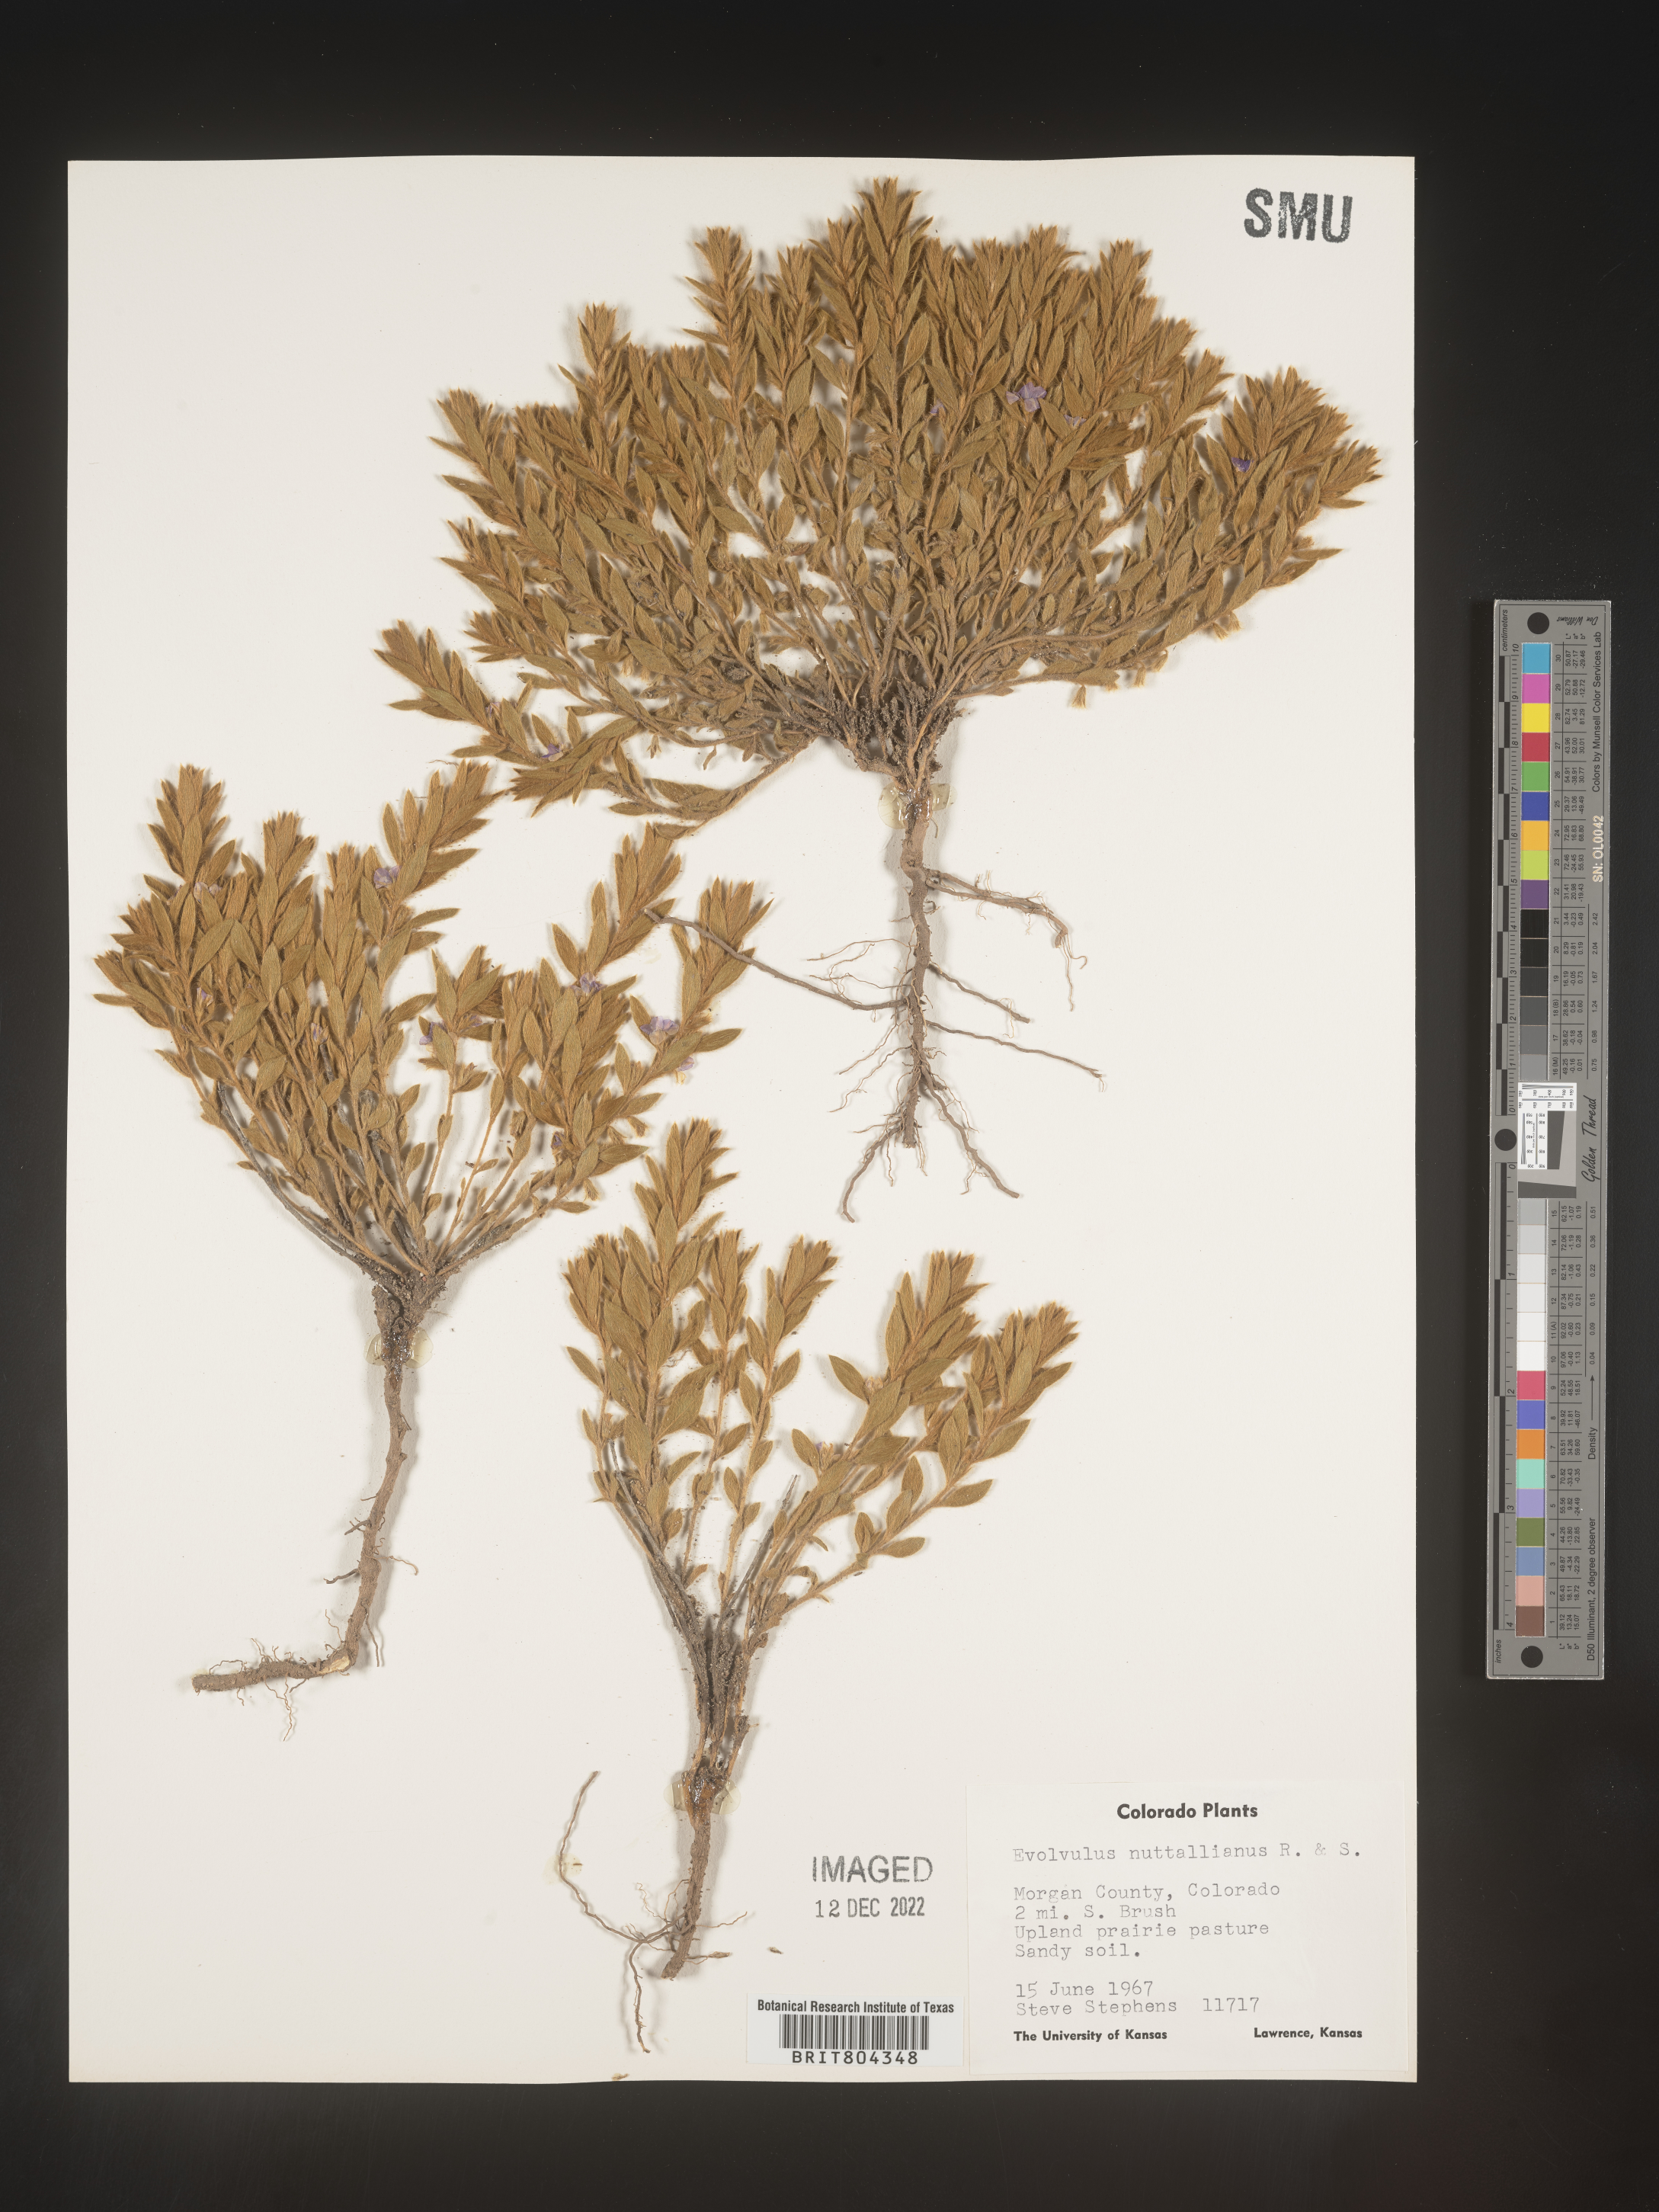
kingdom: Plantae
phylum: Tracheophyta
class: Magnoliopsida
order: Solanales
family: Convolvulaceae
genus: Evolvulus
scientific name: Evolvulus nuttallianus
